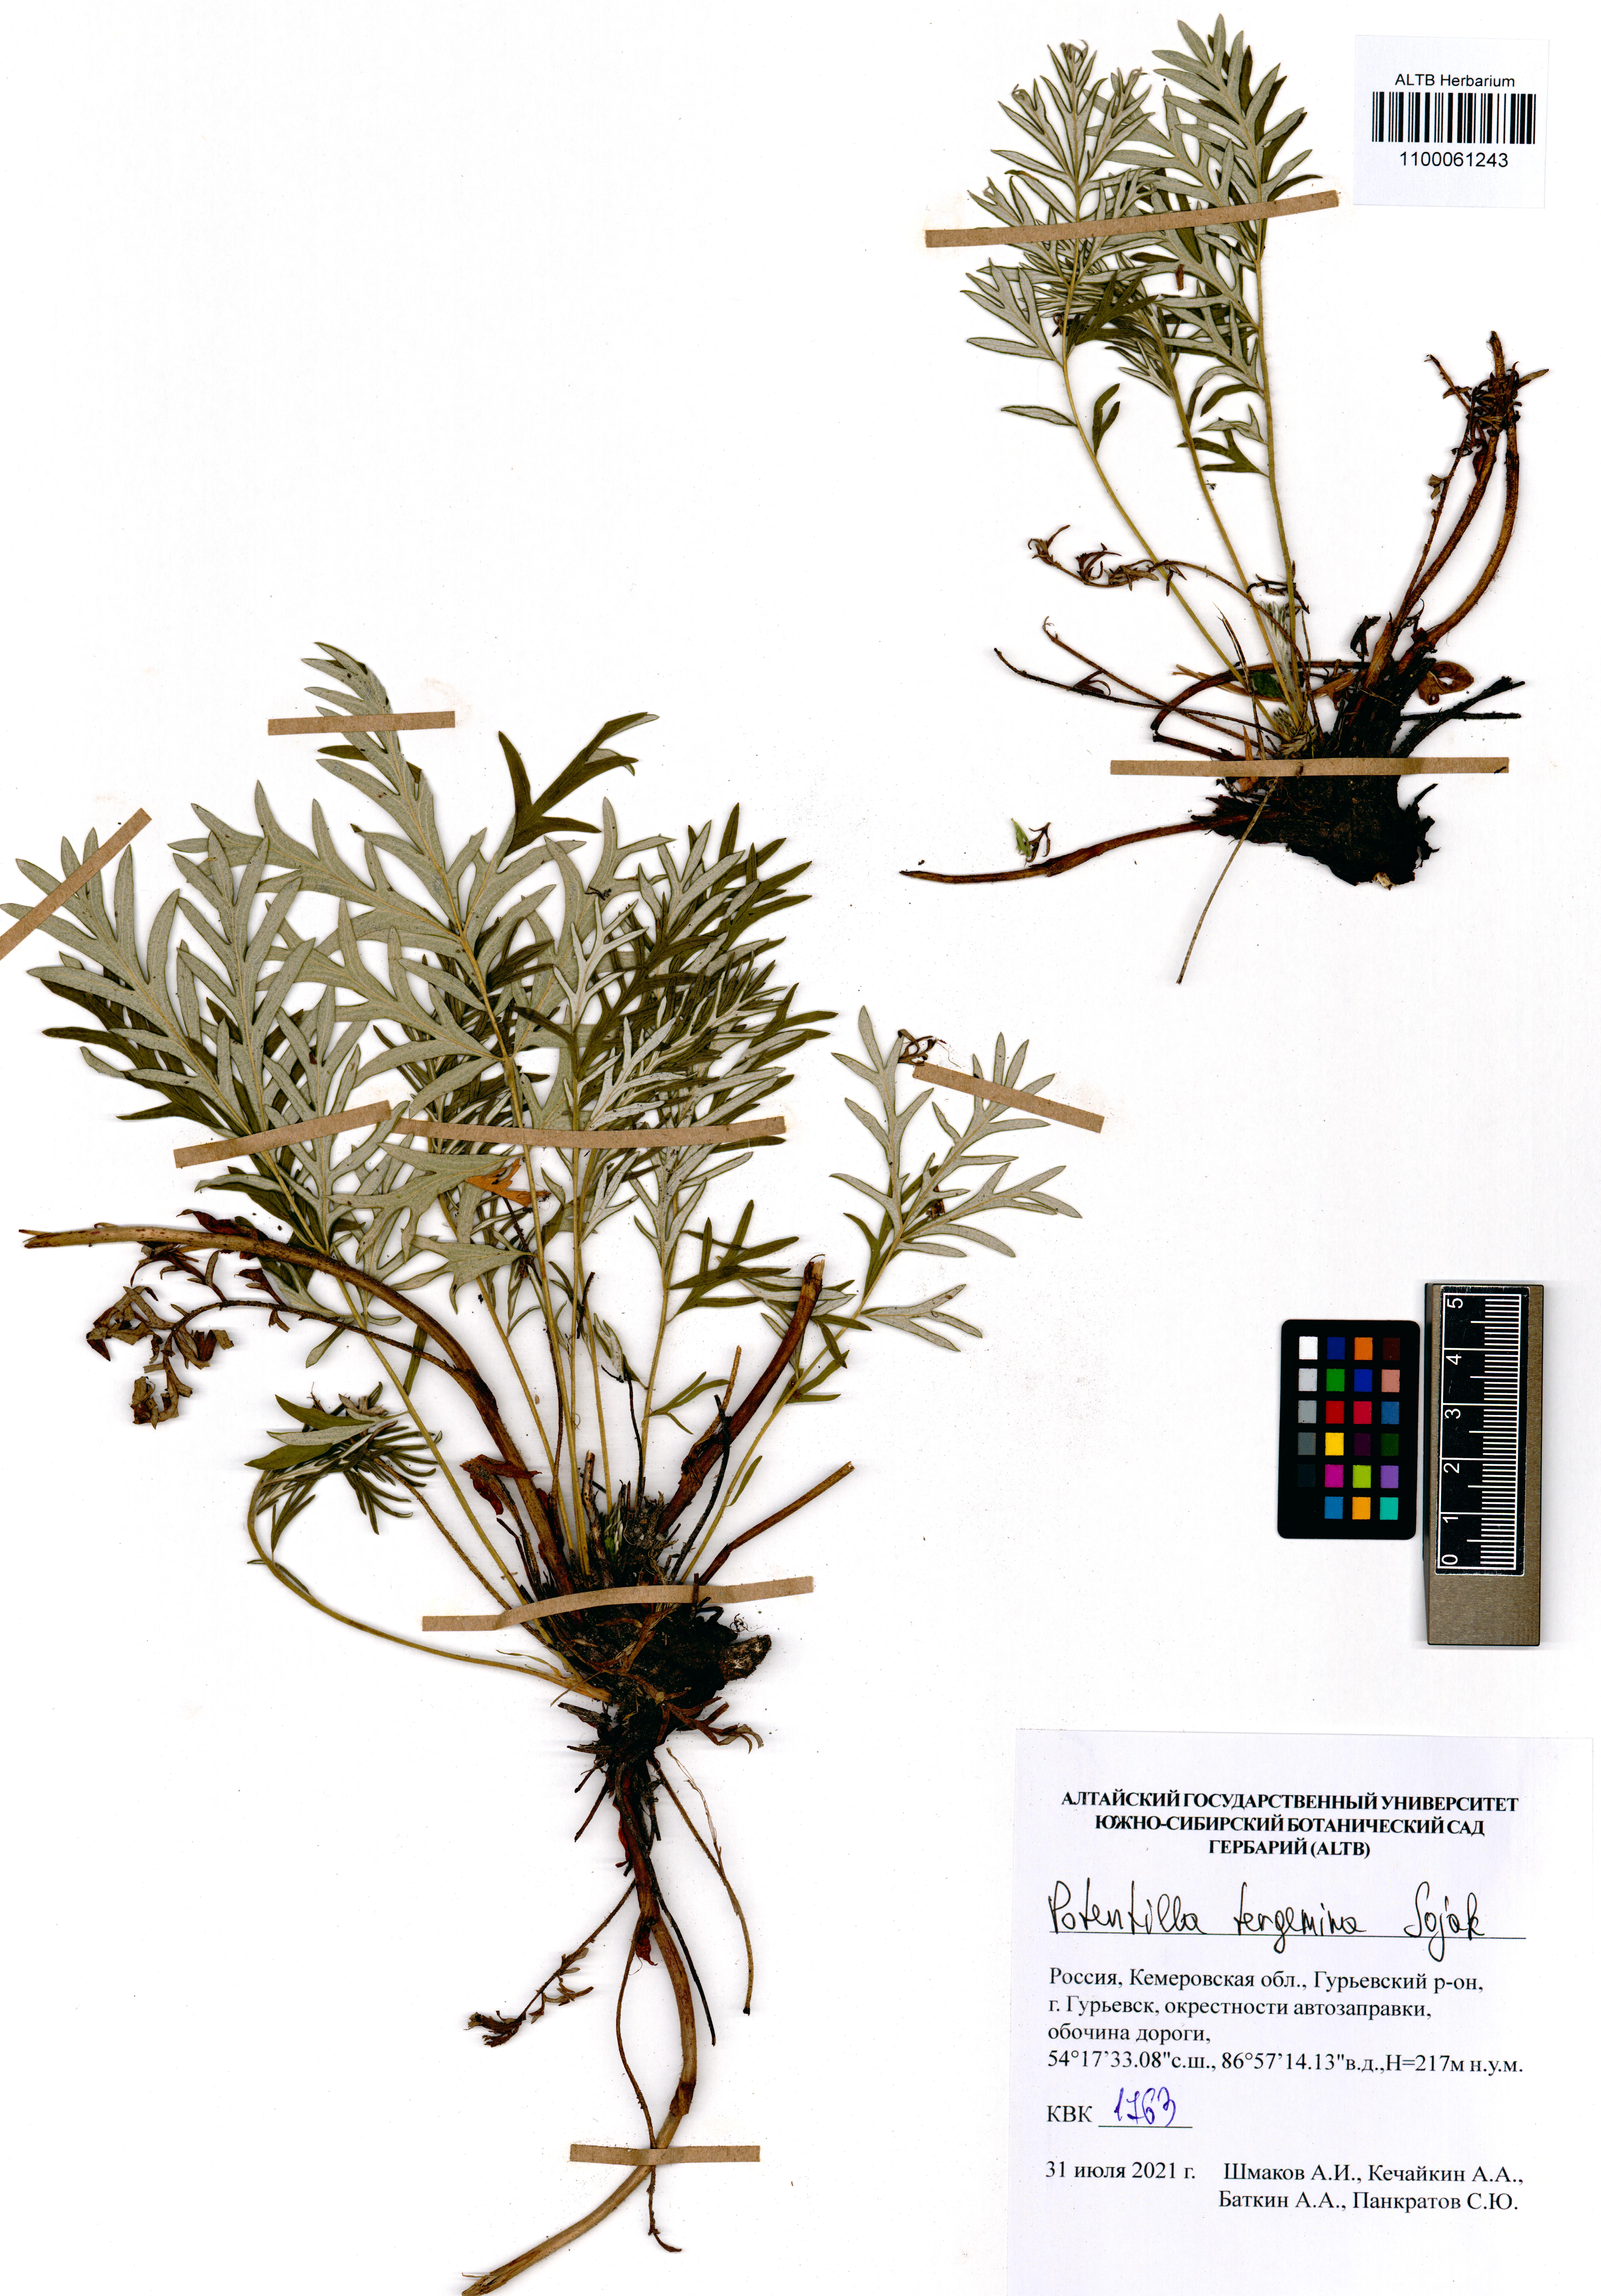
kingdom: Plantae
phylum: Tracheophyta
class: Magnoliopsida
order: Rosales
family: Rosaceae
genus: Potentilla
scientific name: Potentilla tergemina
